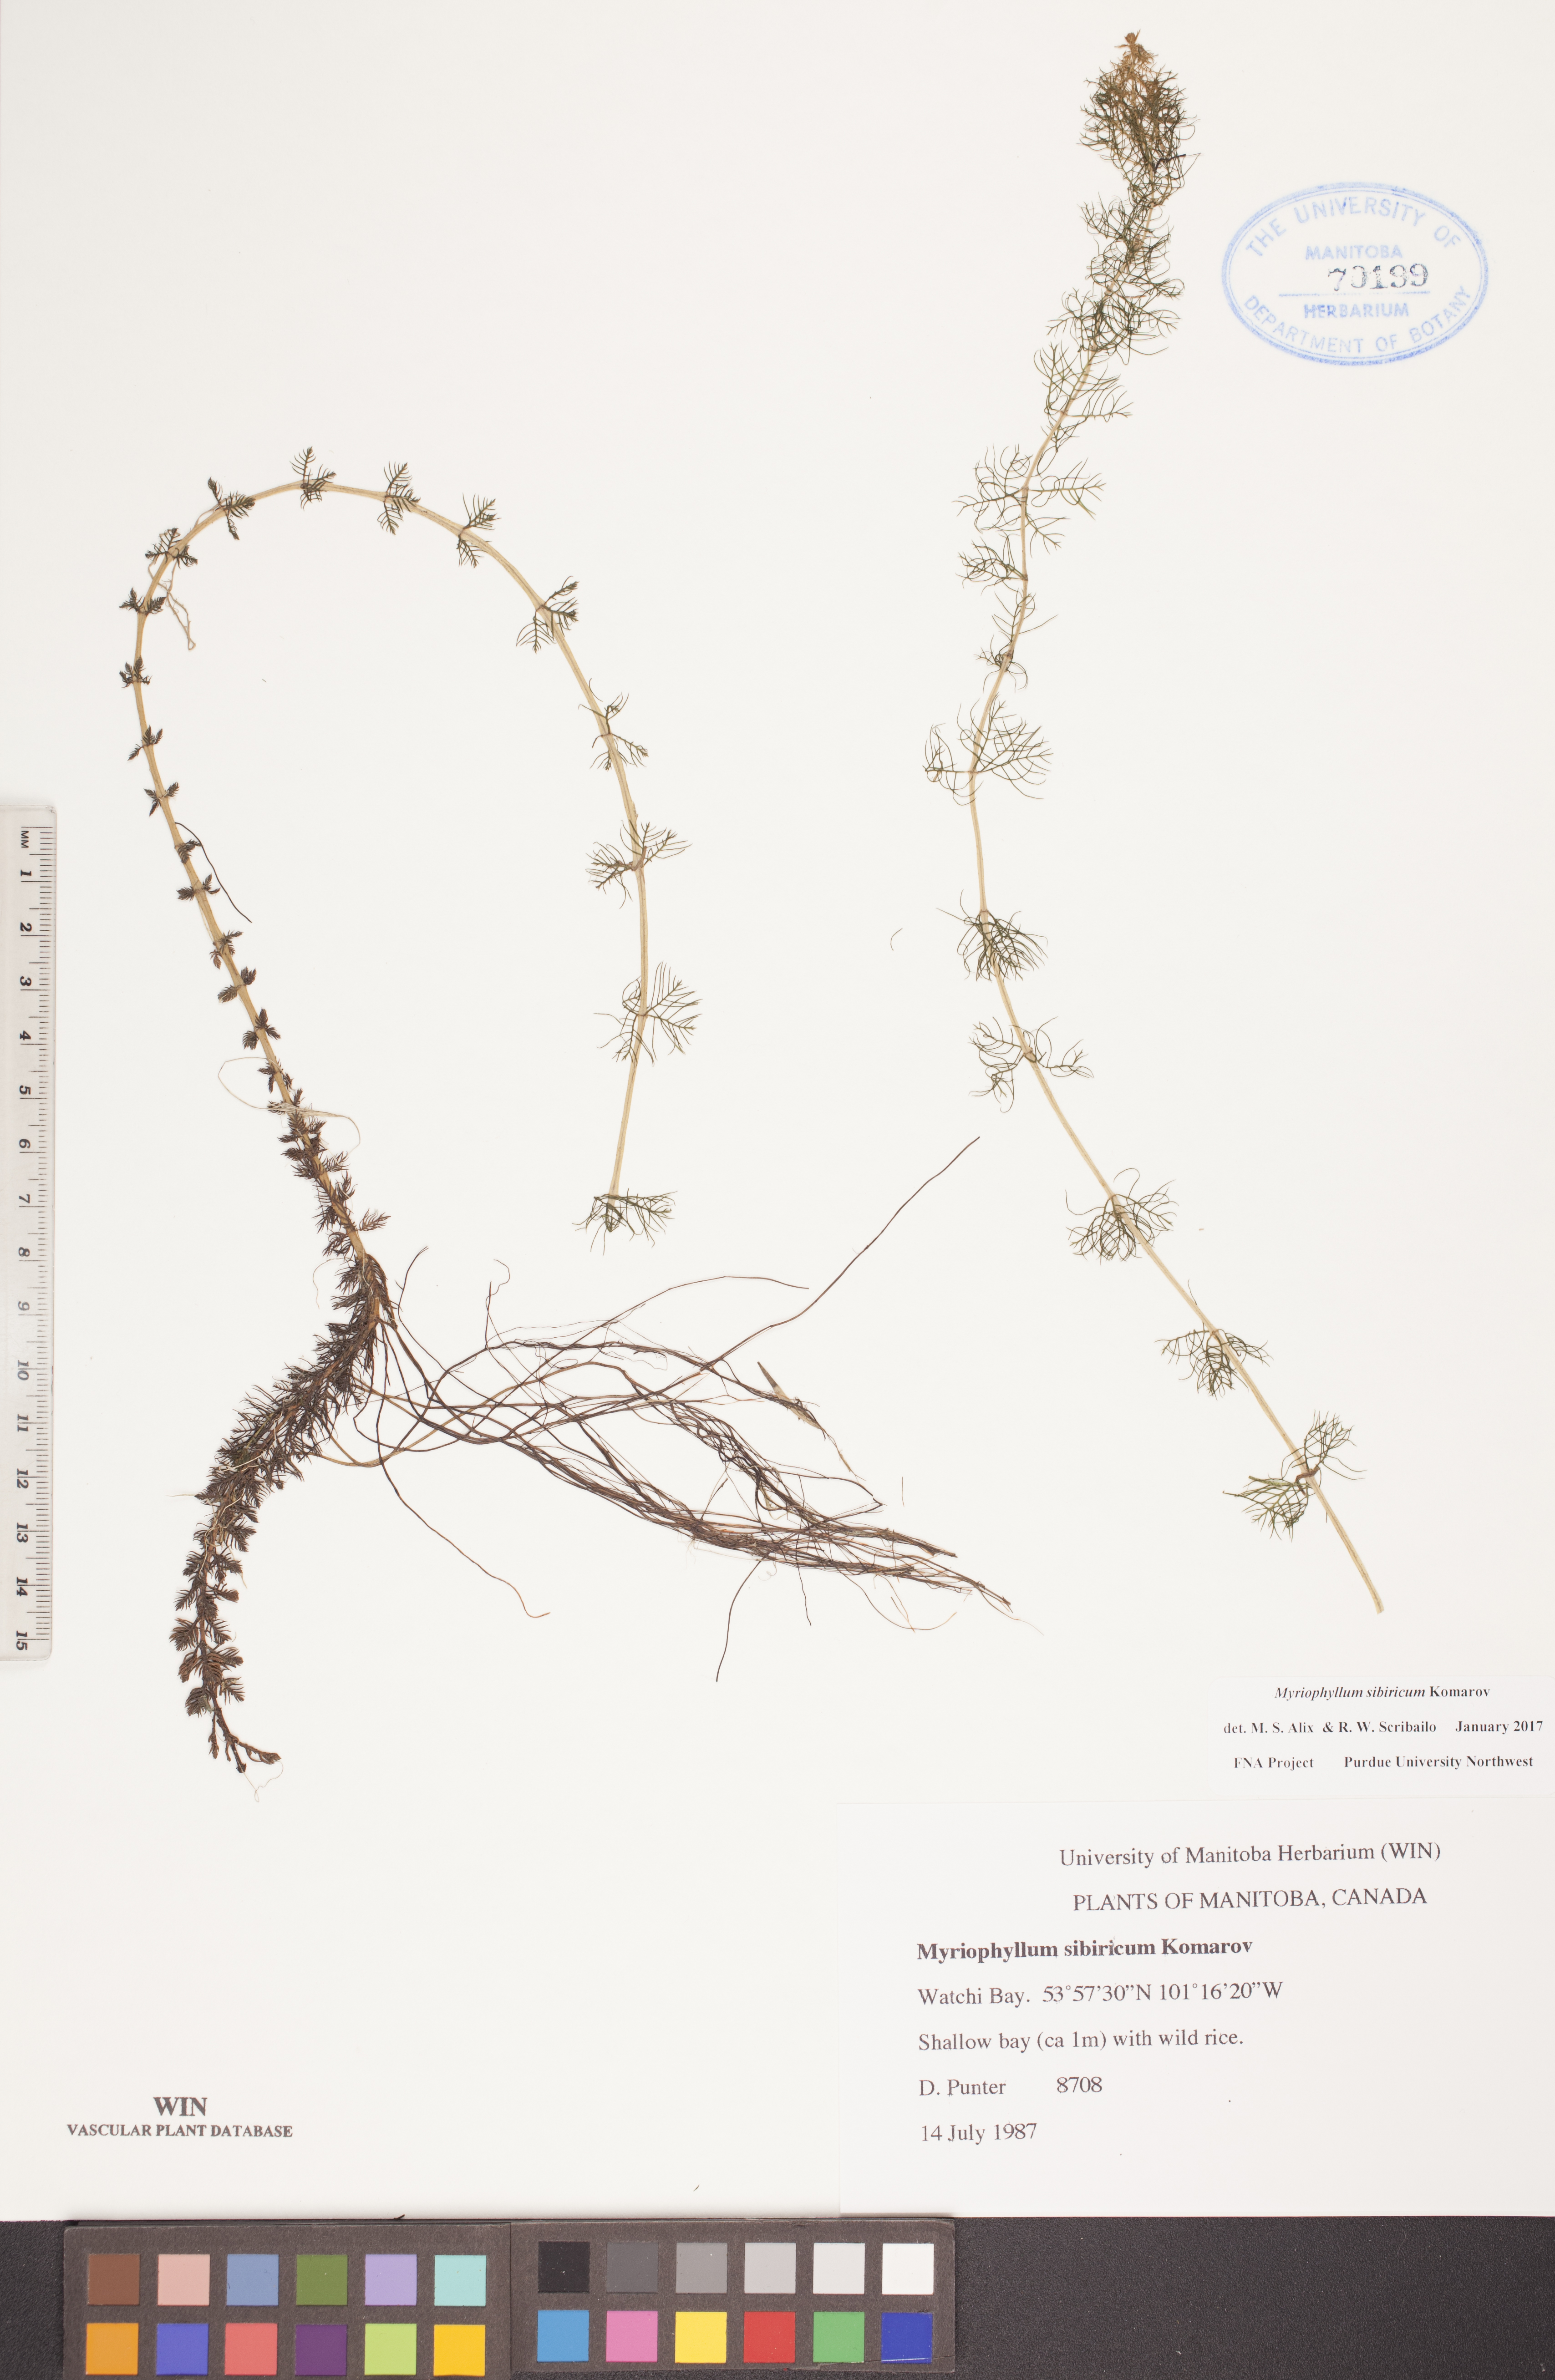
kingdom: Plantae
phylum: Tracheophyta
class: Magnoliopsida
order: Saxifragales
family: Haloragaceae
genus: Myriophyllum
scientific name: Myriophyllum sibiricum
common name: Siberian water-milfoil
